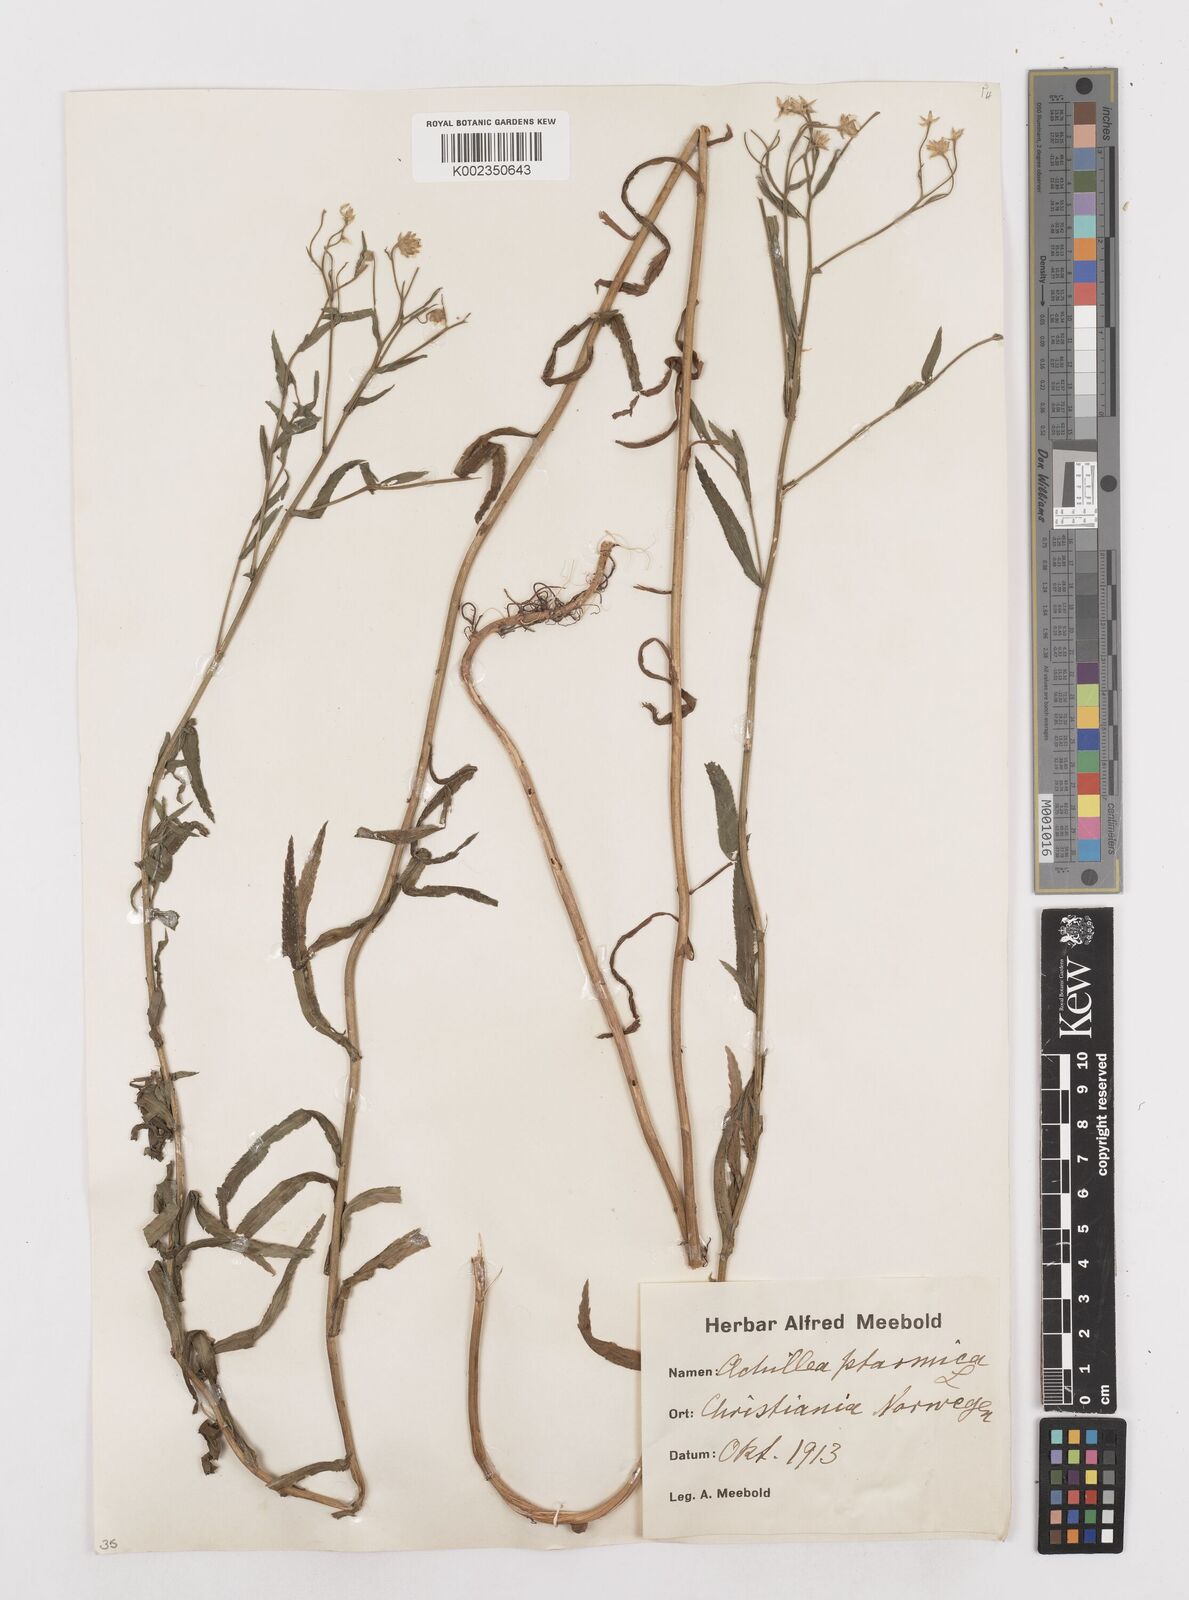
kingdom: Plantae
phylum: Tracheophyta
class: Magnoliopsida
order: Asterales
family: Asteraceae
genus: Achillea
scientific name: Achillea ptarmica
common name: Sneezeweed
